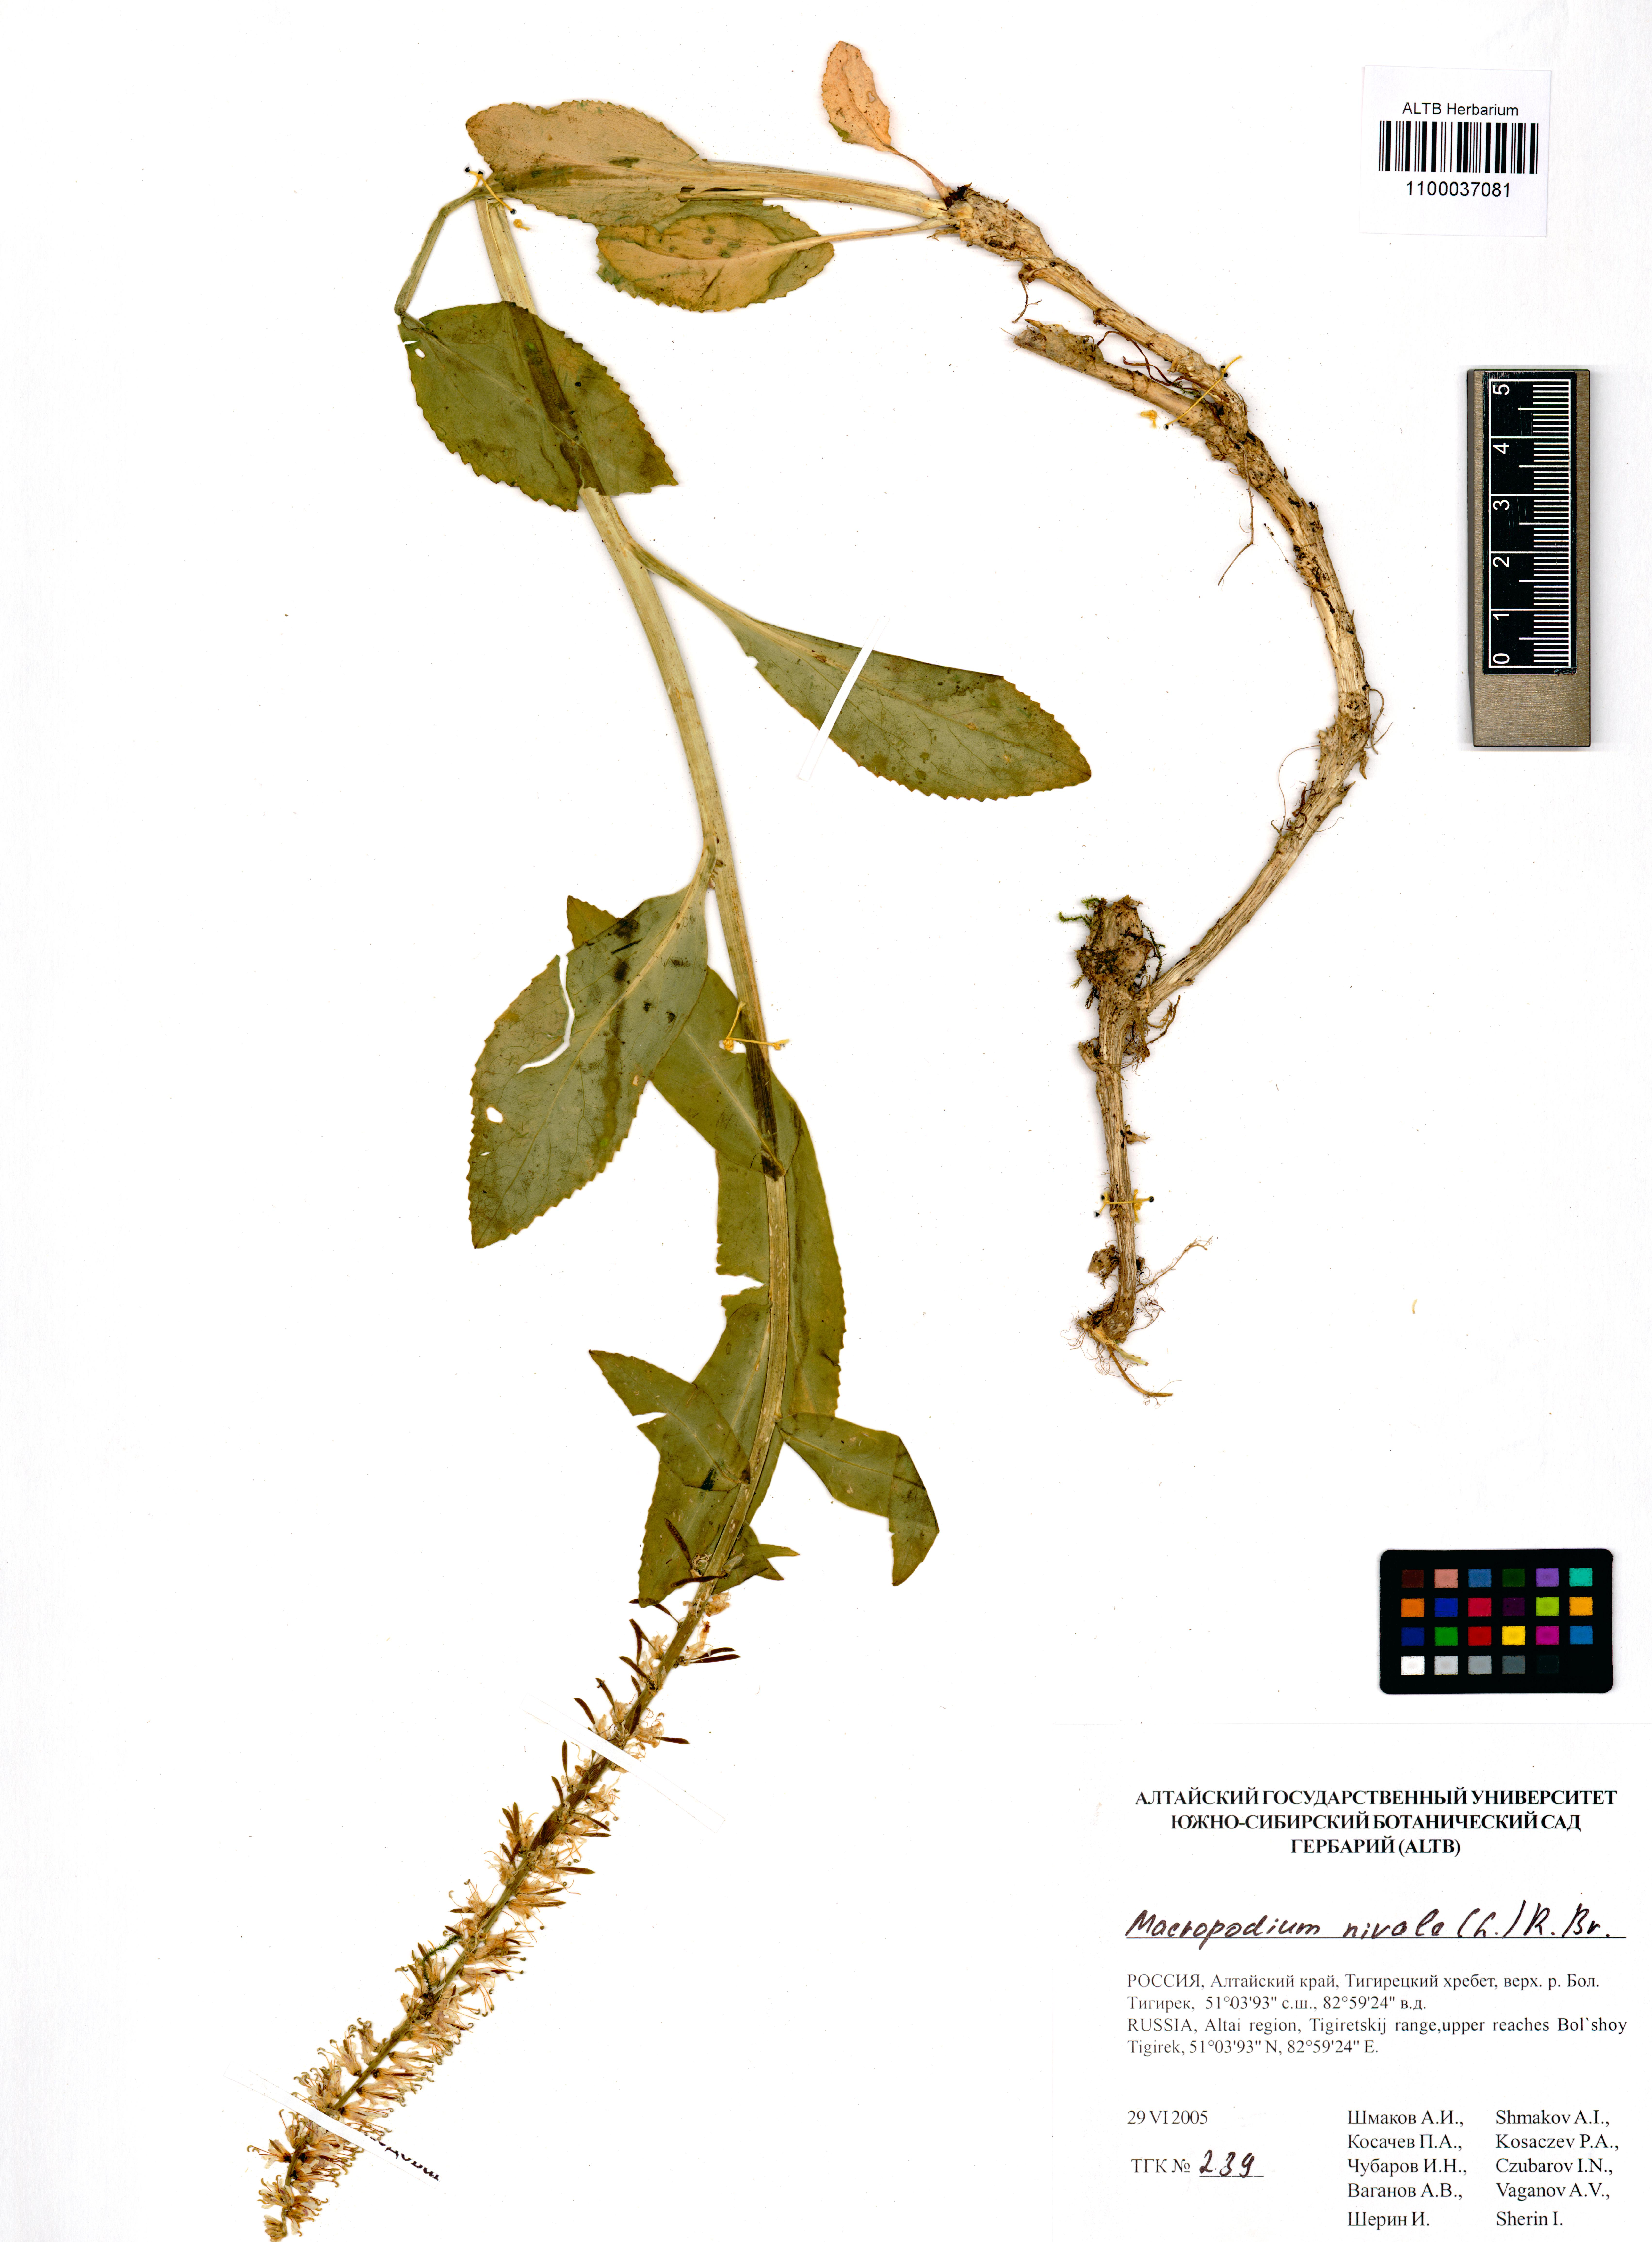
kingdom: Plantae
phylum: Tracheophyta
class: Magnoliopsida
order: Brassicales
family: Brassicaceae
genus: Macropodium
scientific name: Macropodium nivale
